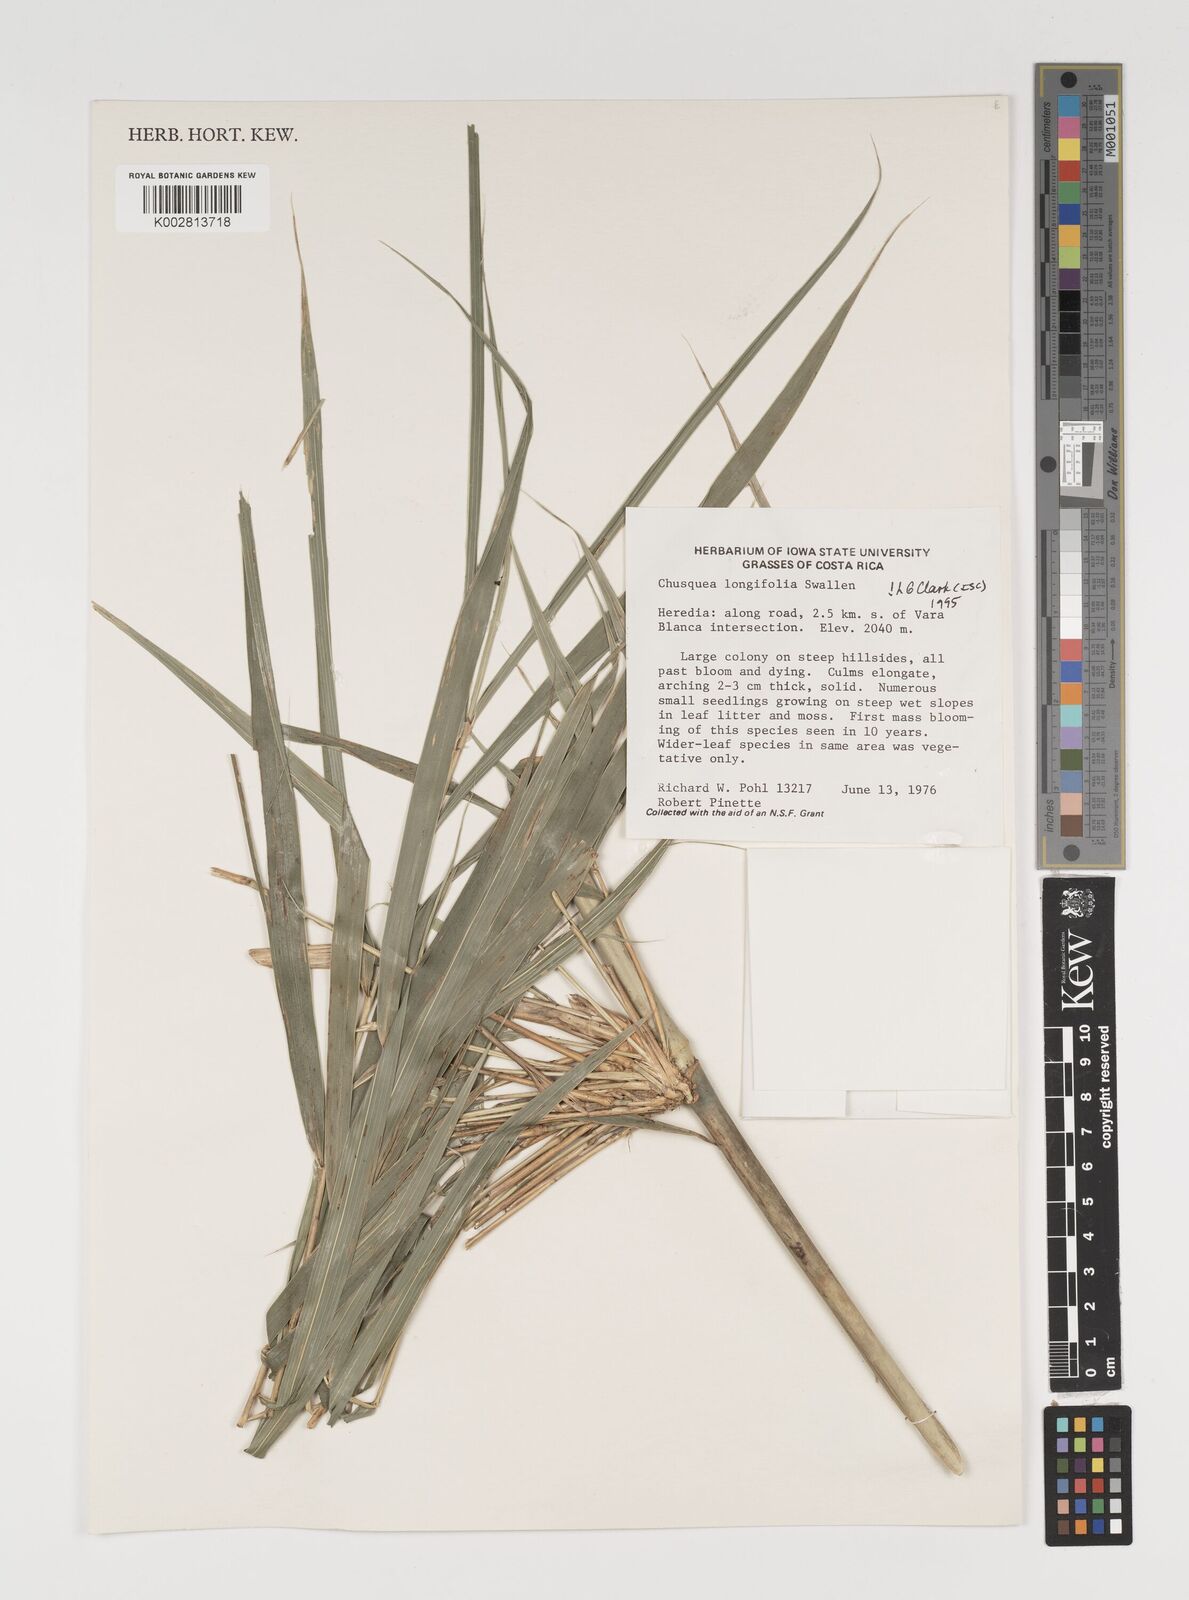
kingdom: Plantae
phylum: Tracheophyta
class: Liliopsida
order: Poales
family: Poaceae
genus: Chusquea
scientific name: Chusquea longifolia
